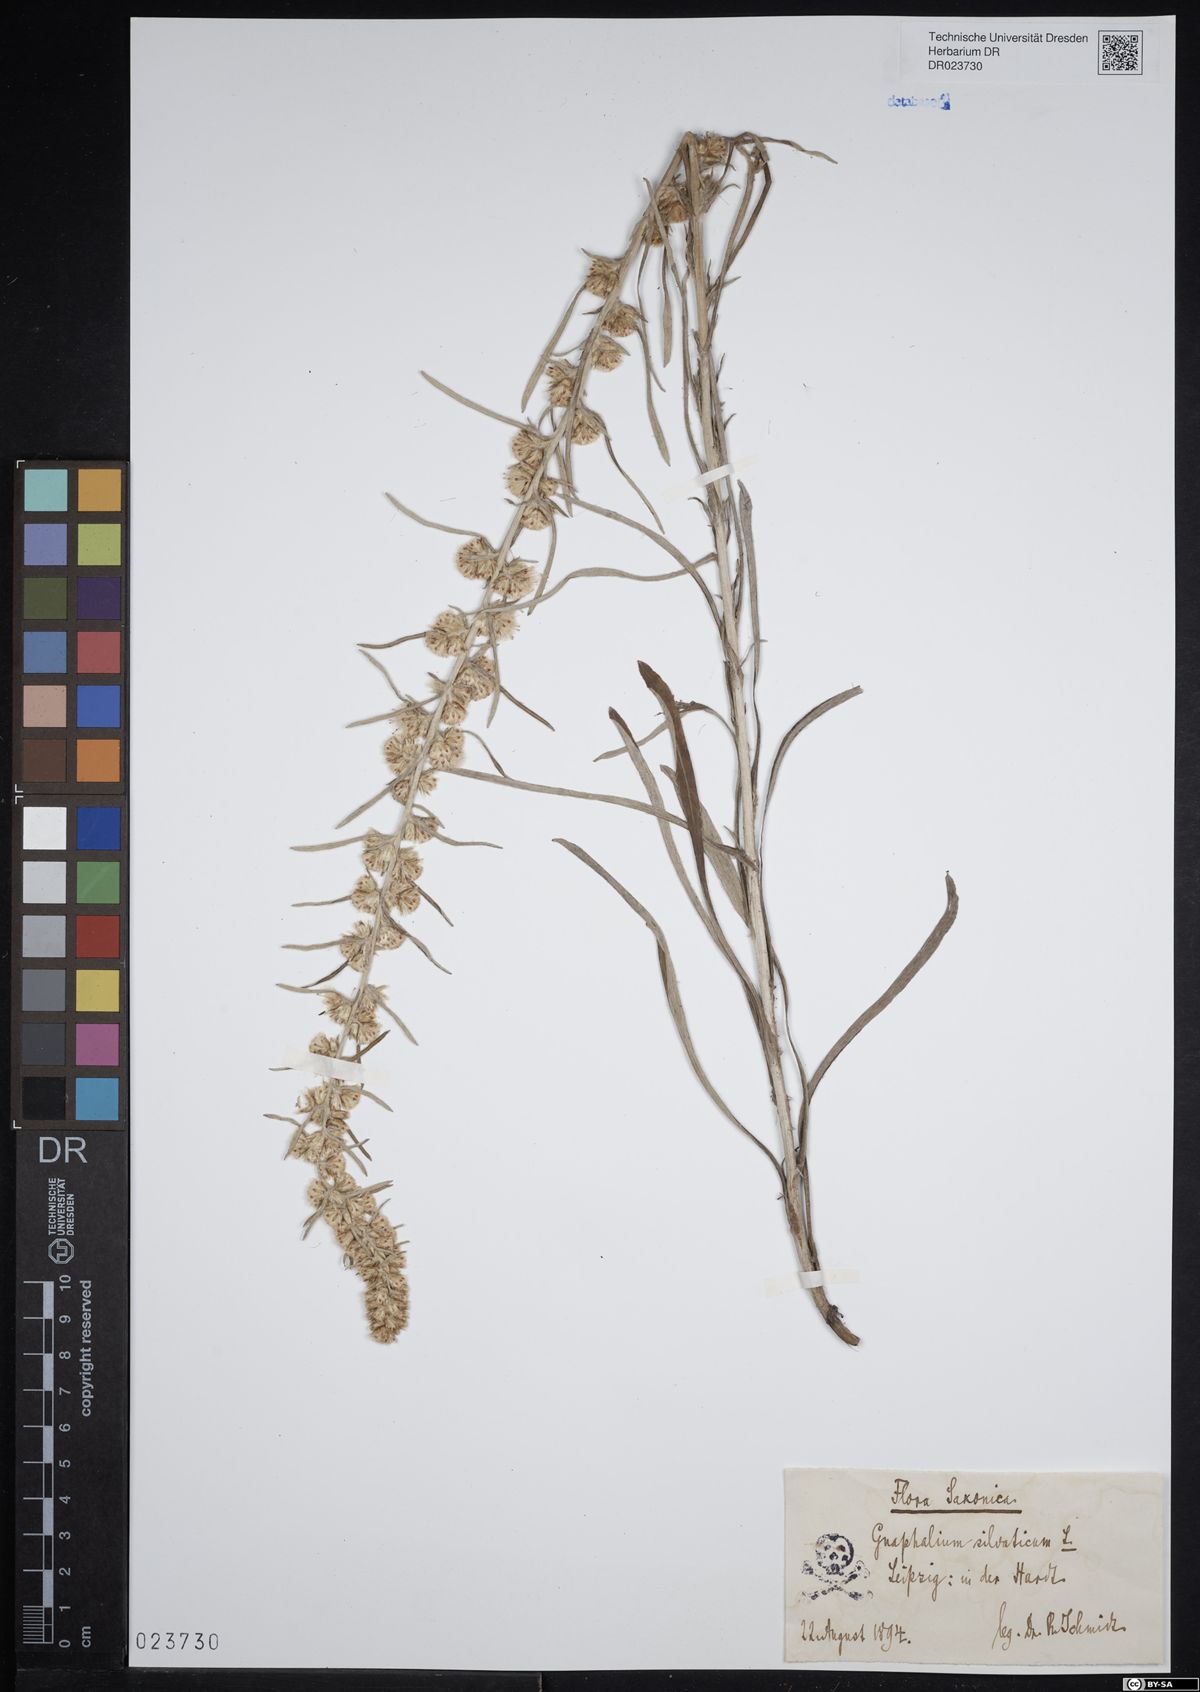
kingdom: Plantae
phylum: Tracheophyta
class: Magnoliopsida
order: Asterales
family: Asteraceae
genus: Omalotheca
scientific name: Omalotheca sylvatica
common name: Heath cudweed
